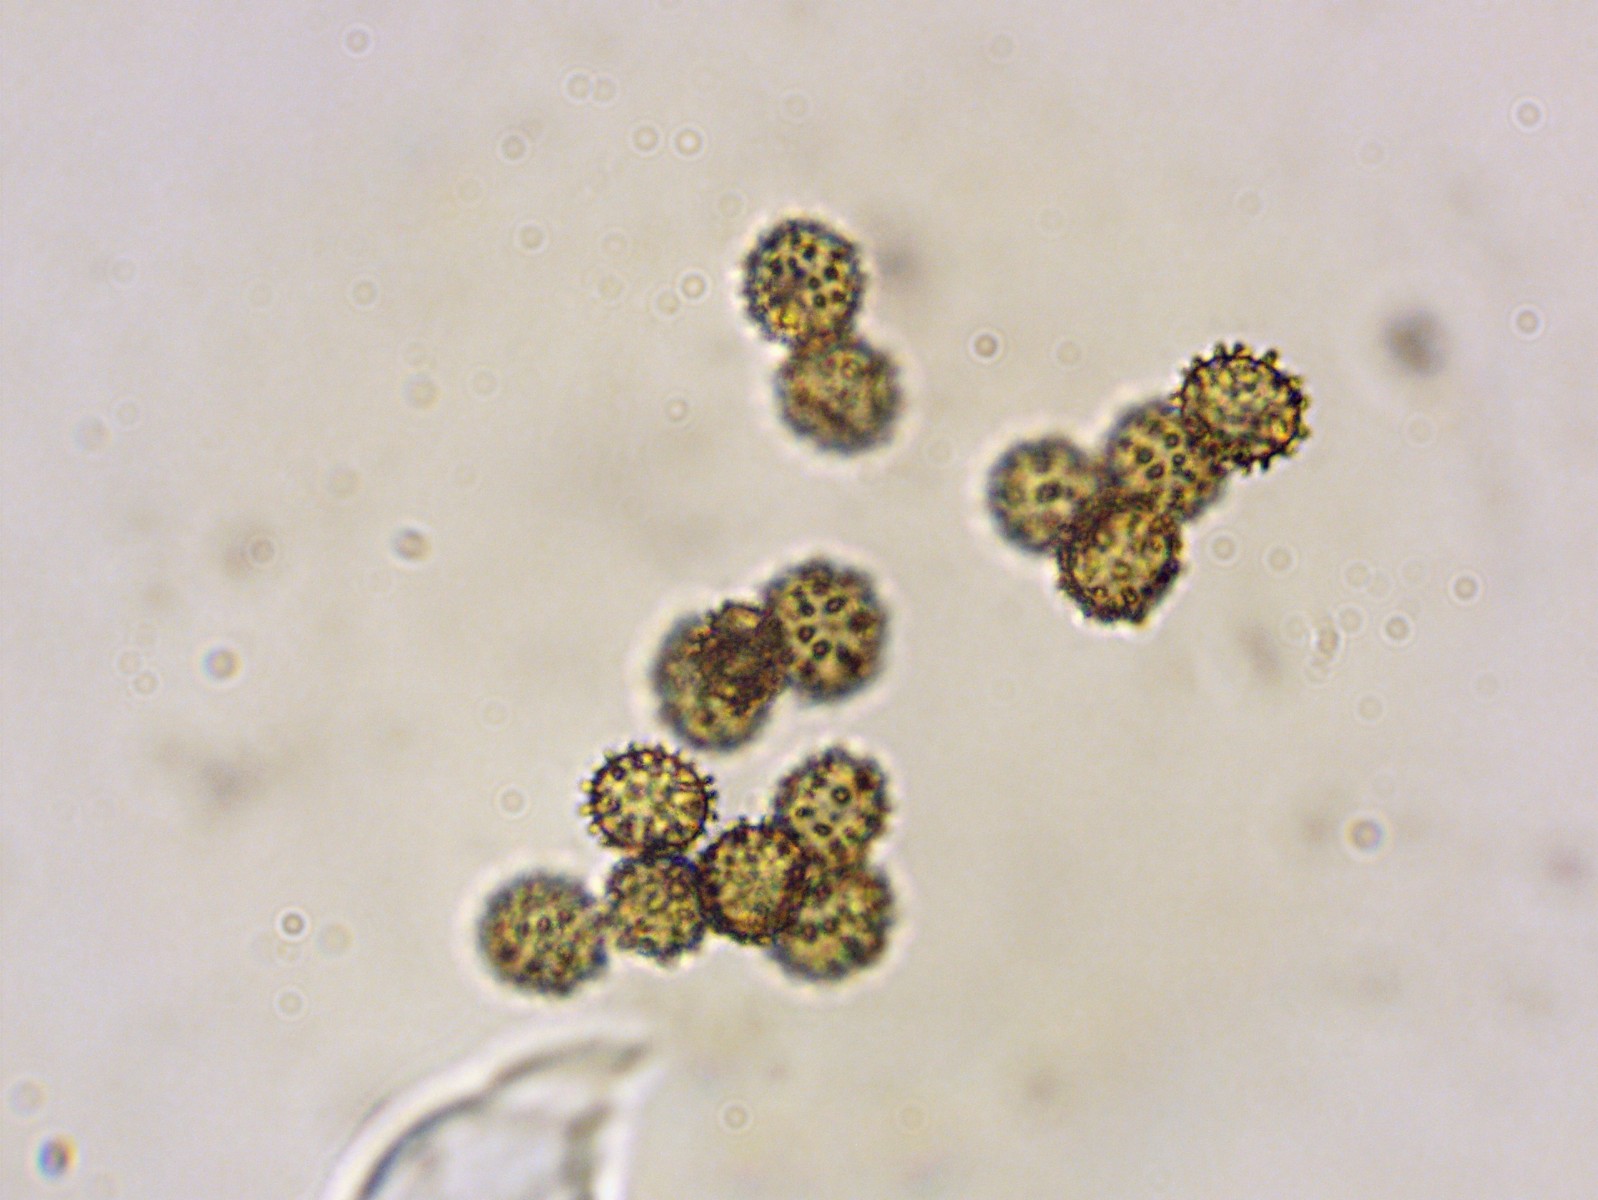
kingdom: Fungi
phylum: Basidiomycota
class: Agaricomycetes
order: Russulales
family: Russulaceae
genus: Russula
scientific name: Russula cuprea
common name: kanel-skørhat
